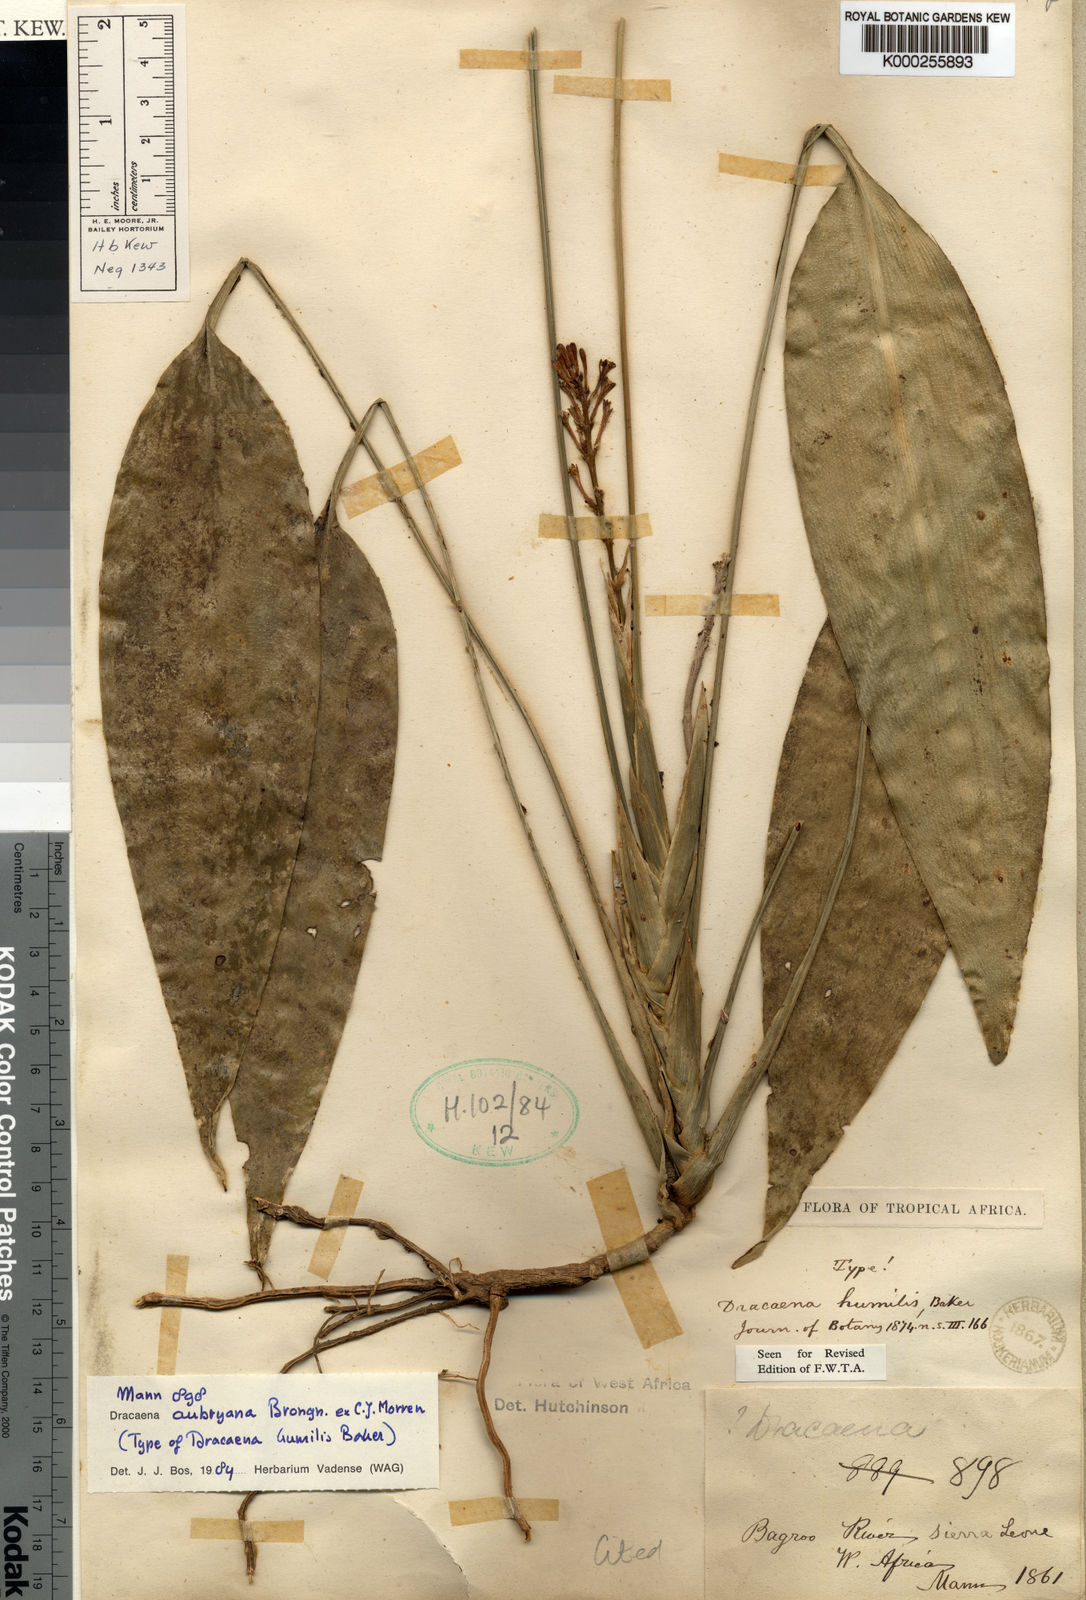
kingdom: Plantae
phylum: Tracheophyta
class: Liliopsida
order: Asparagales
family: Asparagaceae
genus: Dracaena
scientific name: Dracaena aubryana
